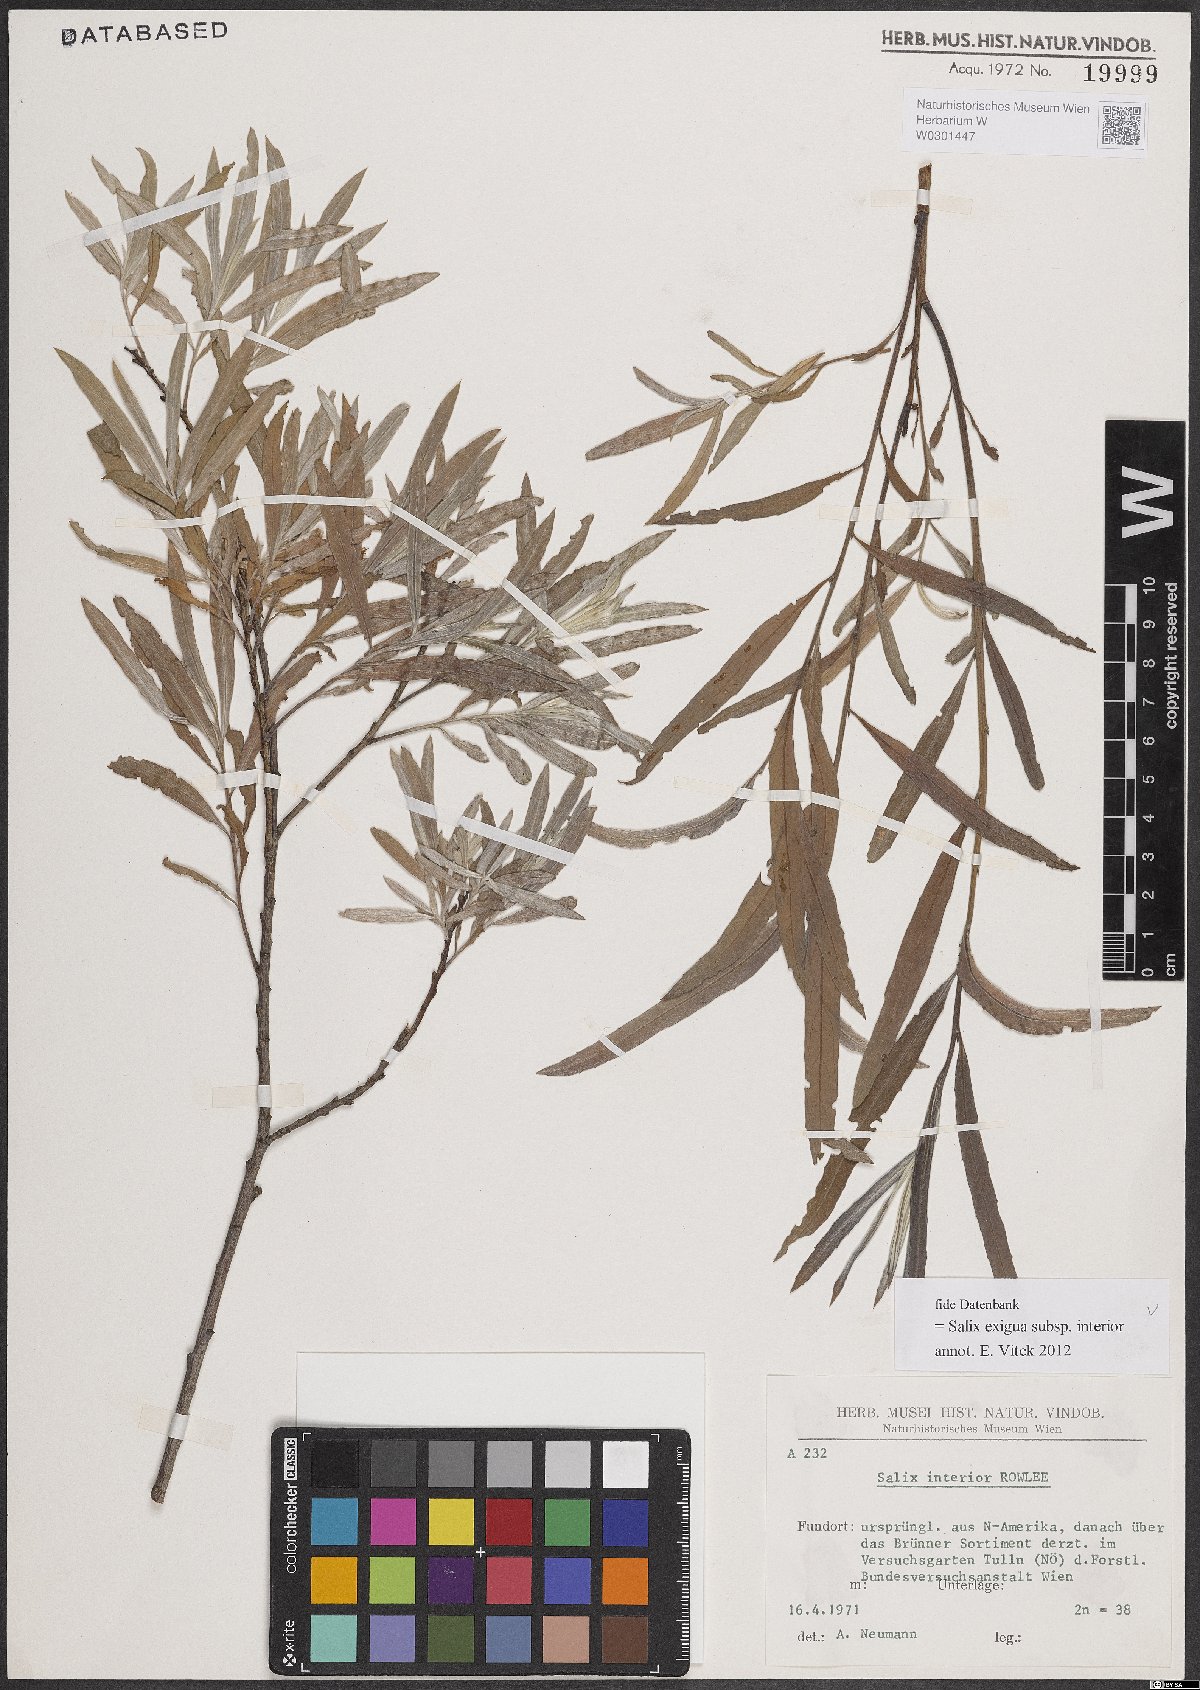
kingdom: Plantae
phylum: Tracheophyta
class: Magnoliopsida
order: Malpighiales
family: Salicaceae
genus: Salix
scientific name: Salix interior
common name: Sandbar willow
